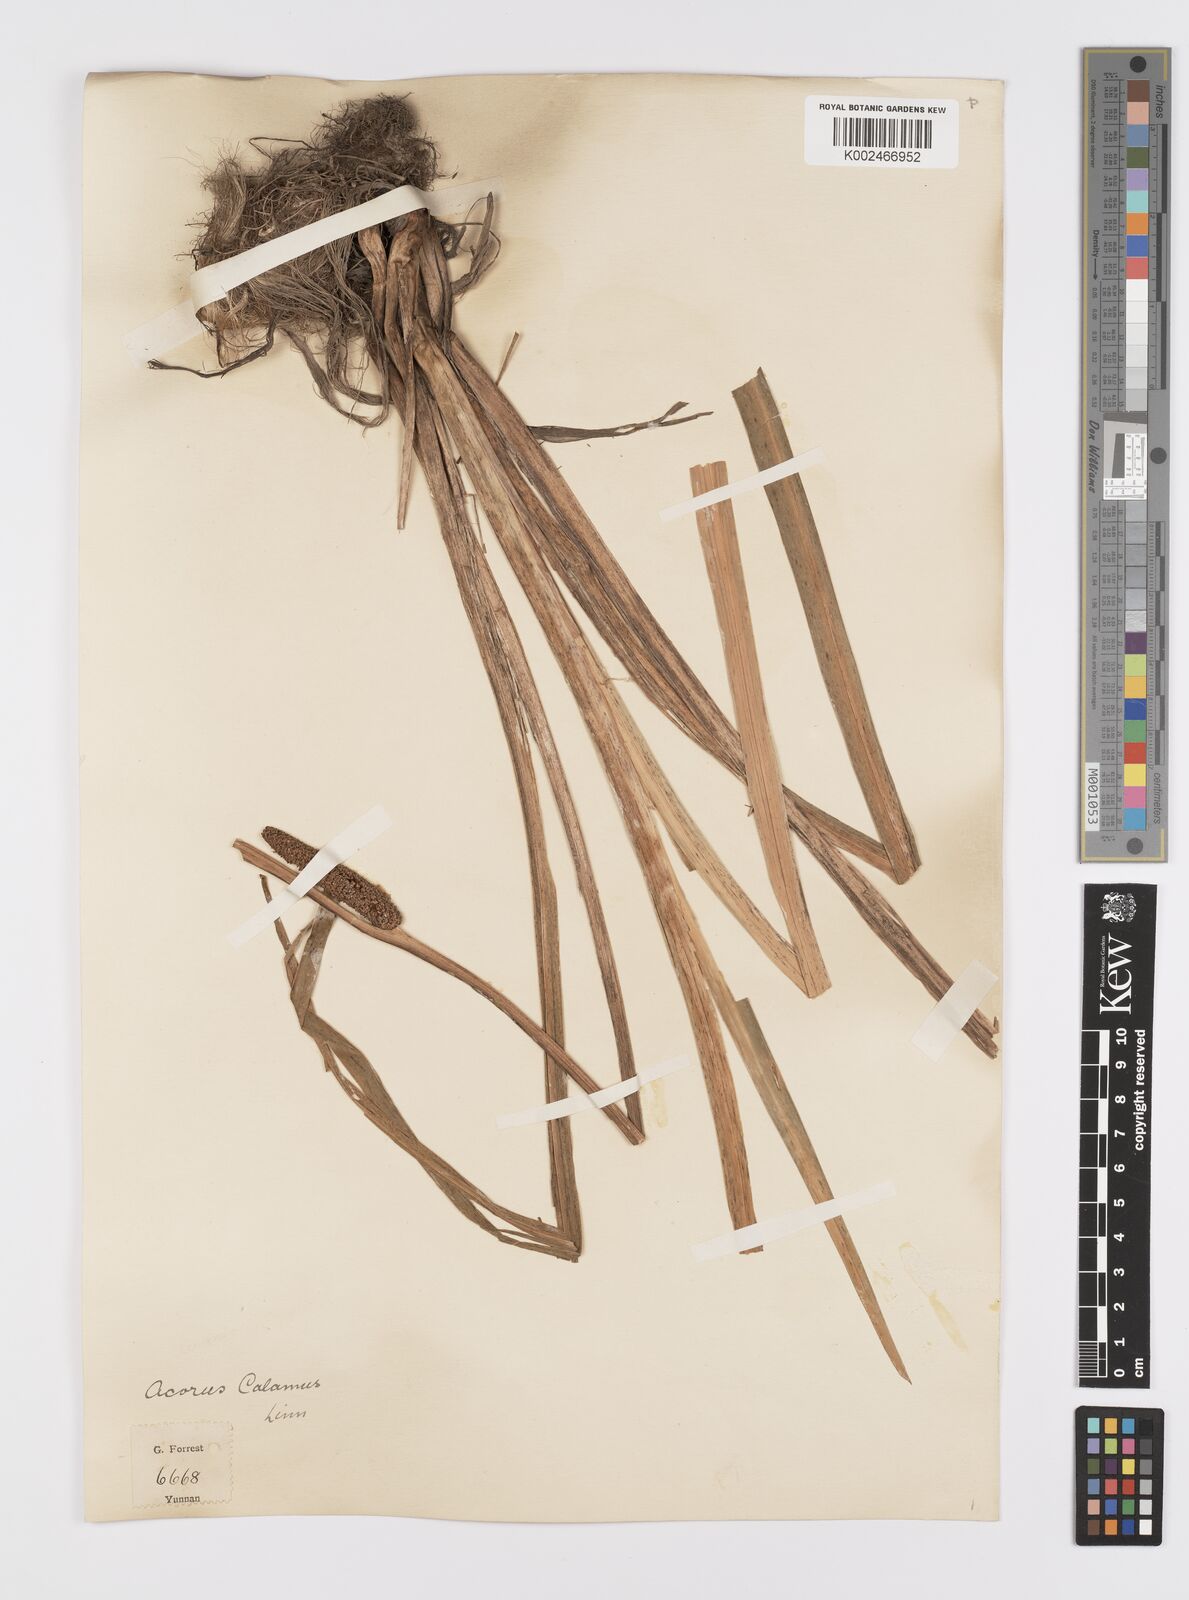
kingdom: Plantae
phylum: Tracheophyta
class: Liliopsida
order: Acorales
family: Acoraceae
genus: Acorus
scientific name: Acorus calamus
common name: Sweet-flag
